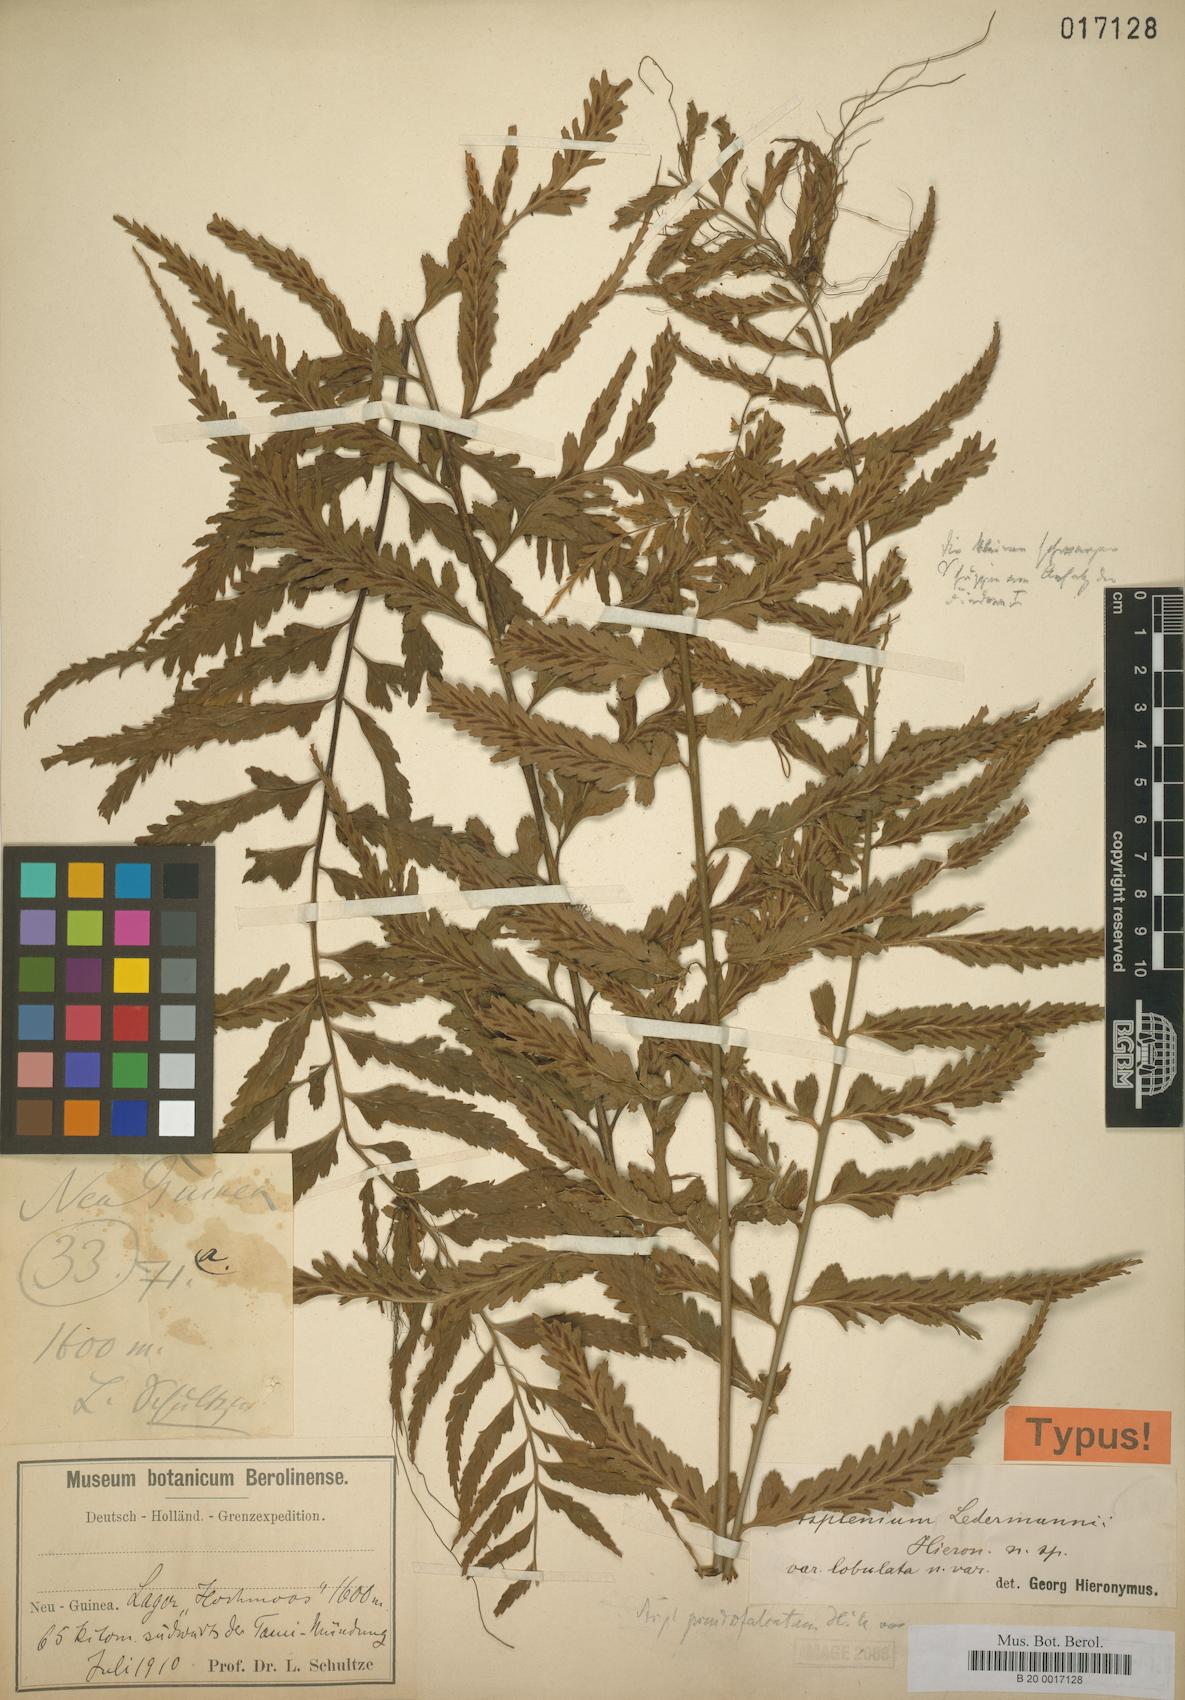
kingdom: Plantae
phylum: Tracheophyta
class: Polypodiopsida
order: Polypodiales
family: Aspleniaceae
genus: Asplenium
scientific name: Asplenium lobulatum
